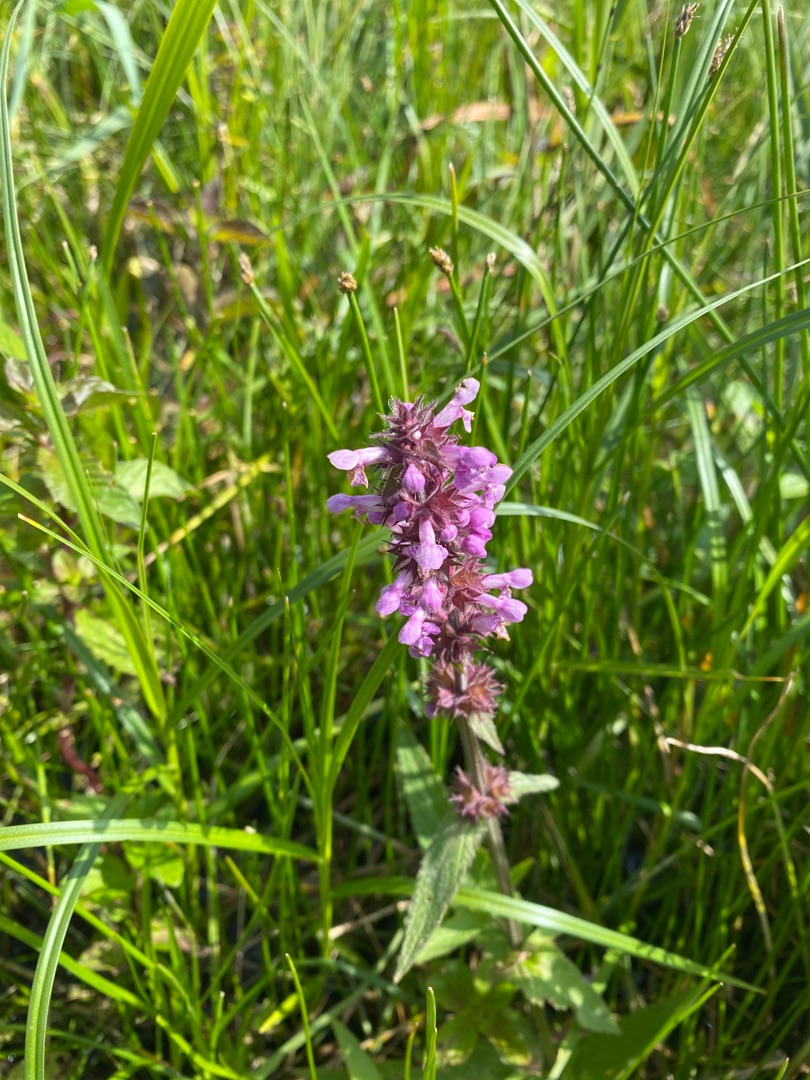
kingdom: Plantae
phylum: Tracheophyta
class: Magnoliopsida
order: Lamiales
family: Lamiaceae
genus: Stachys
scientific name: Stachys palustris
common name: Kær-galtetand
